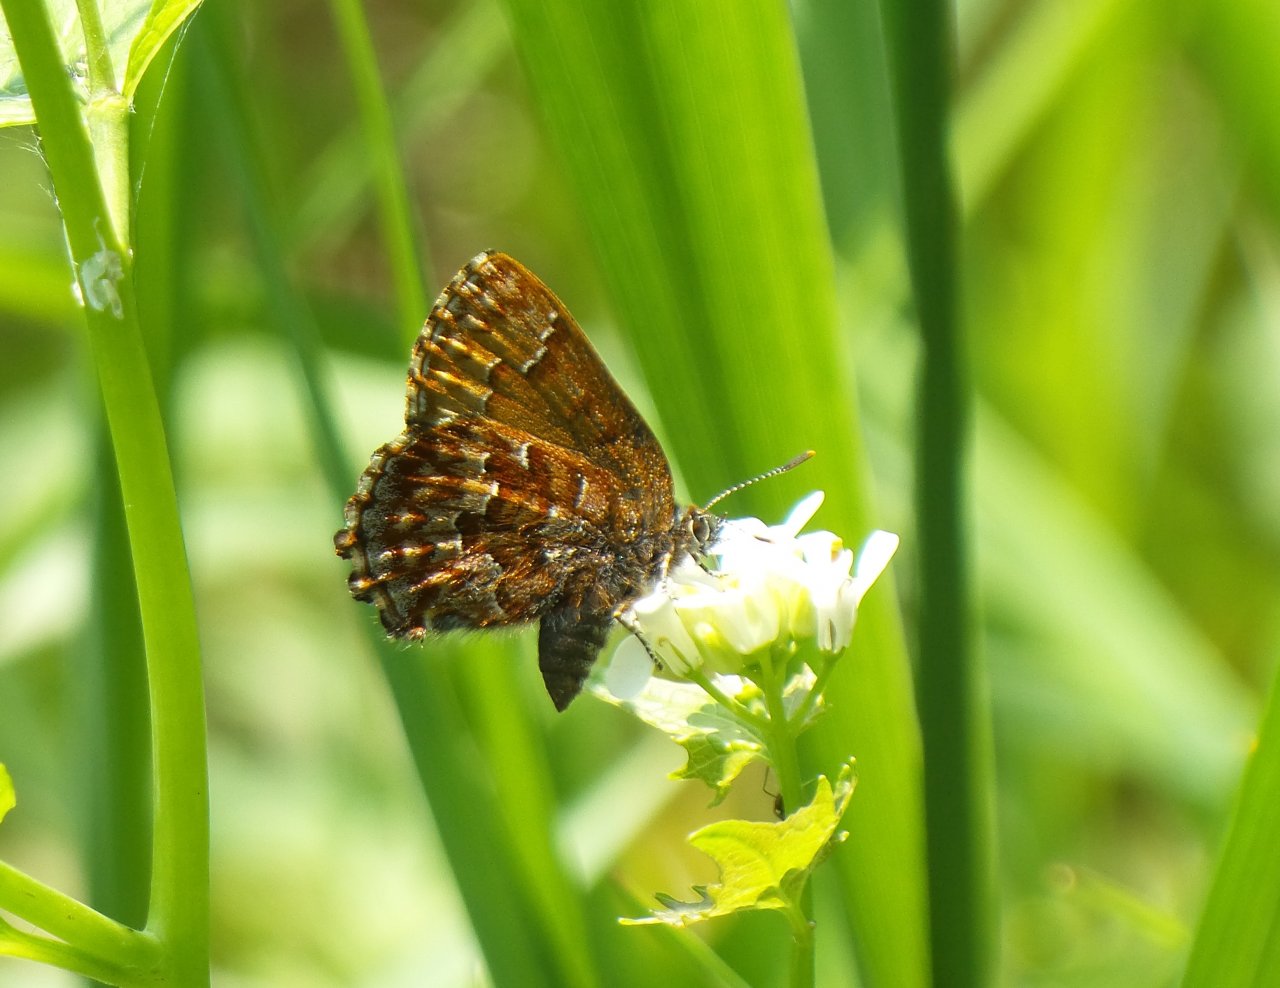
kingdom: Animalia
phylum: Arthropoda
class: Insecta
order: Lepidoptera
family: Lycaenidae
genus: Incisalia
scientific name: Incisalia niphon
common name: Eastern Pine Elfin
